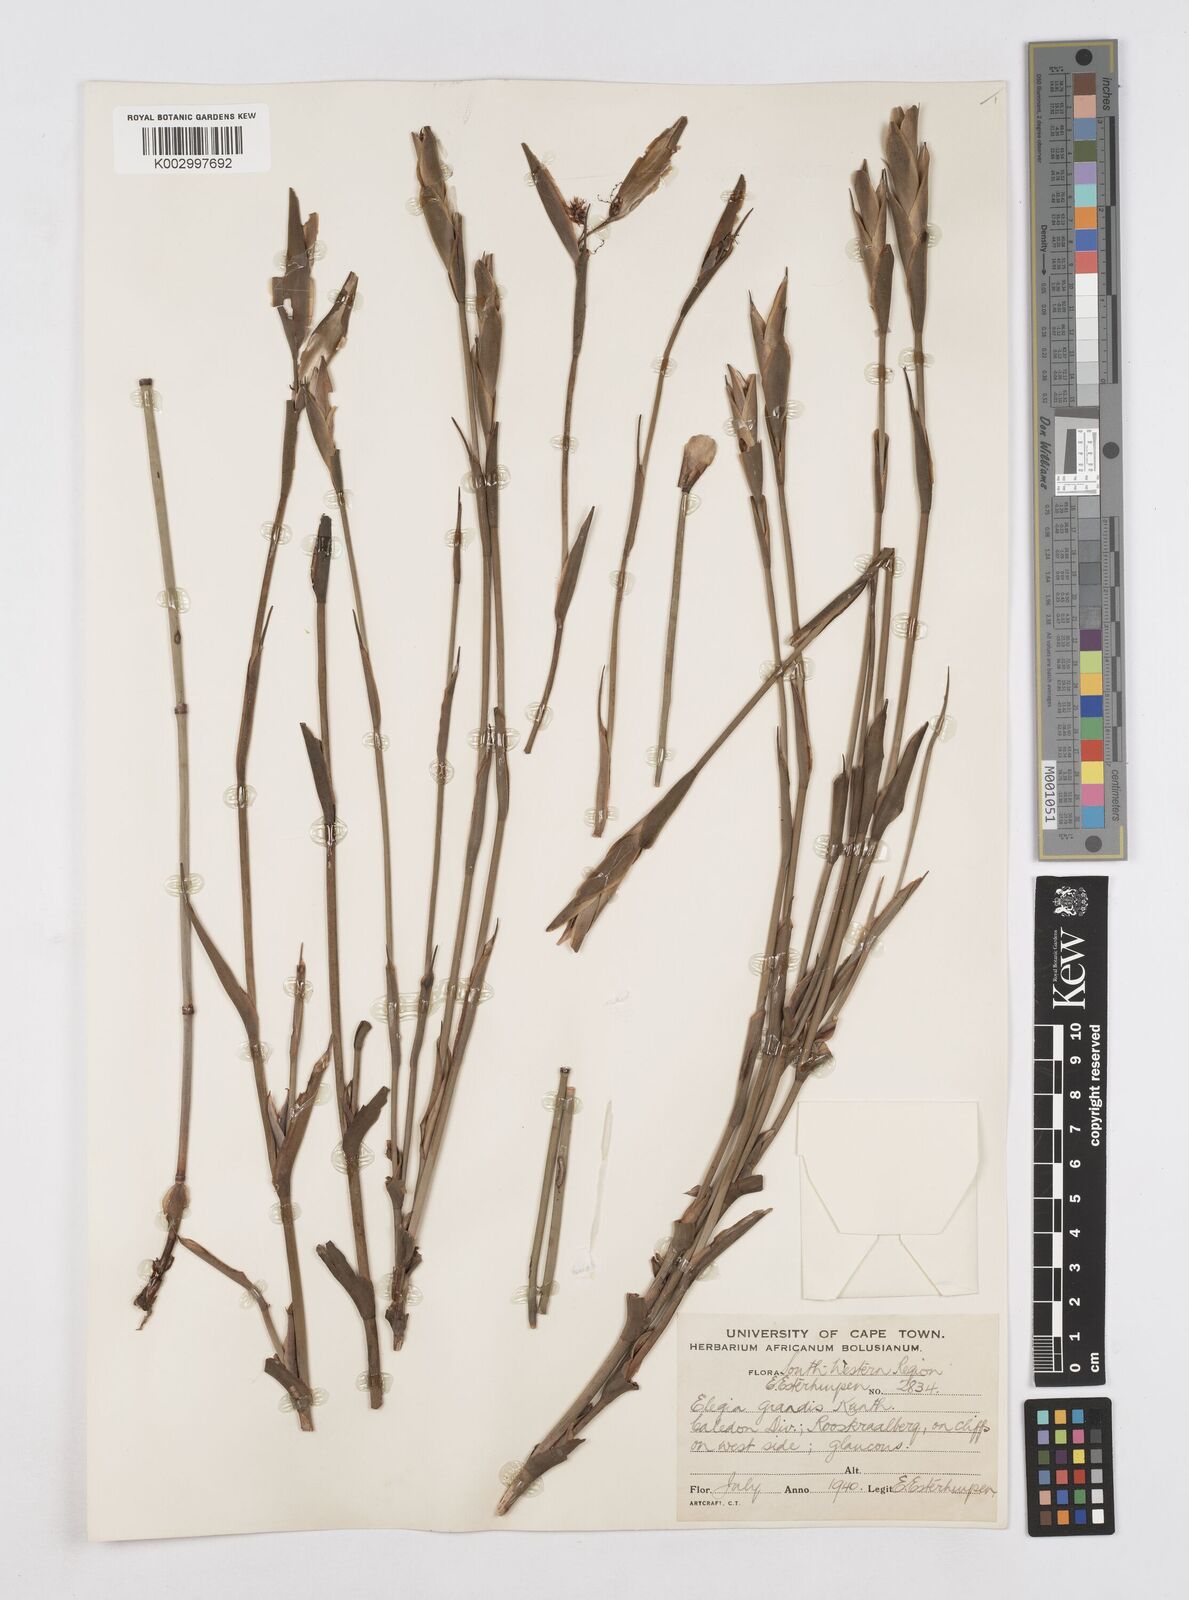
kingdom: Plantae
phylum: Tracheophyta
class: Liliopsida
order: Poales
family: Restionaceae
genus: Elegia
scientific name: Elegia grandis
